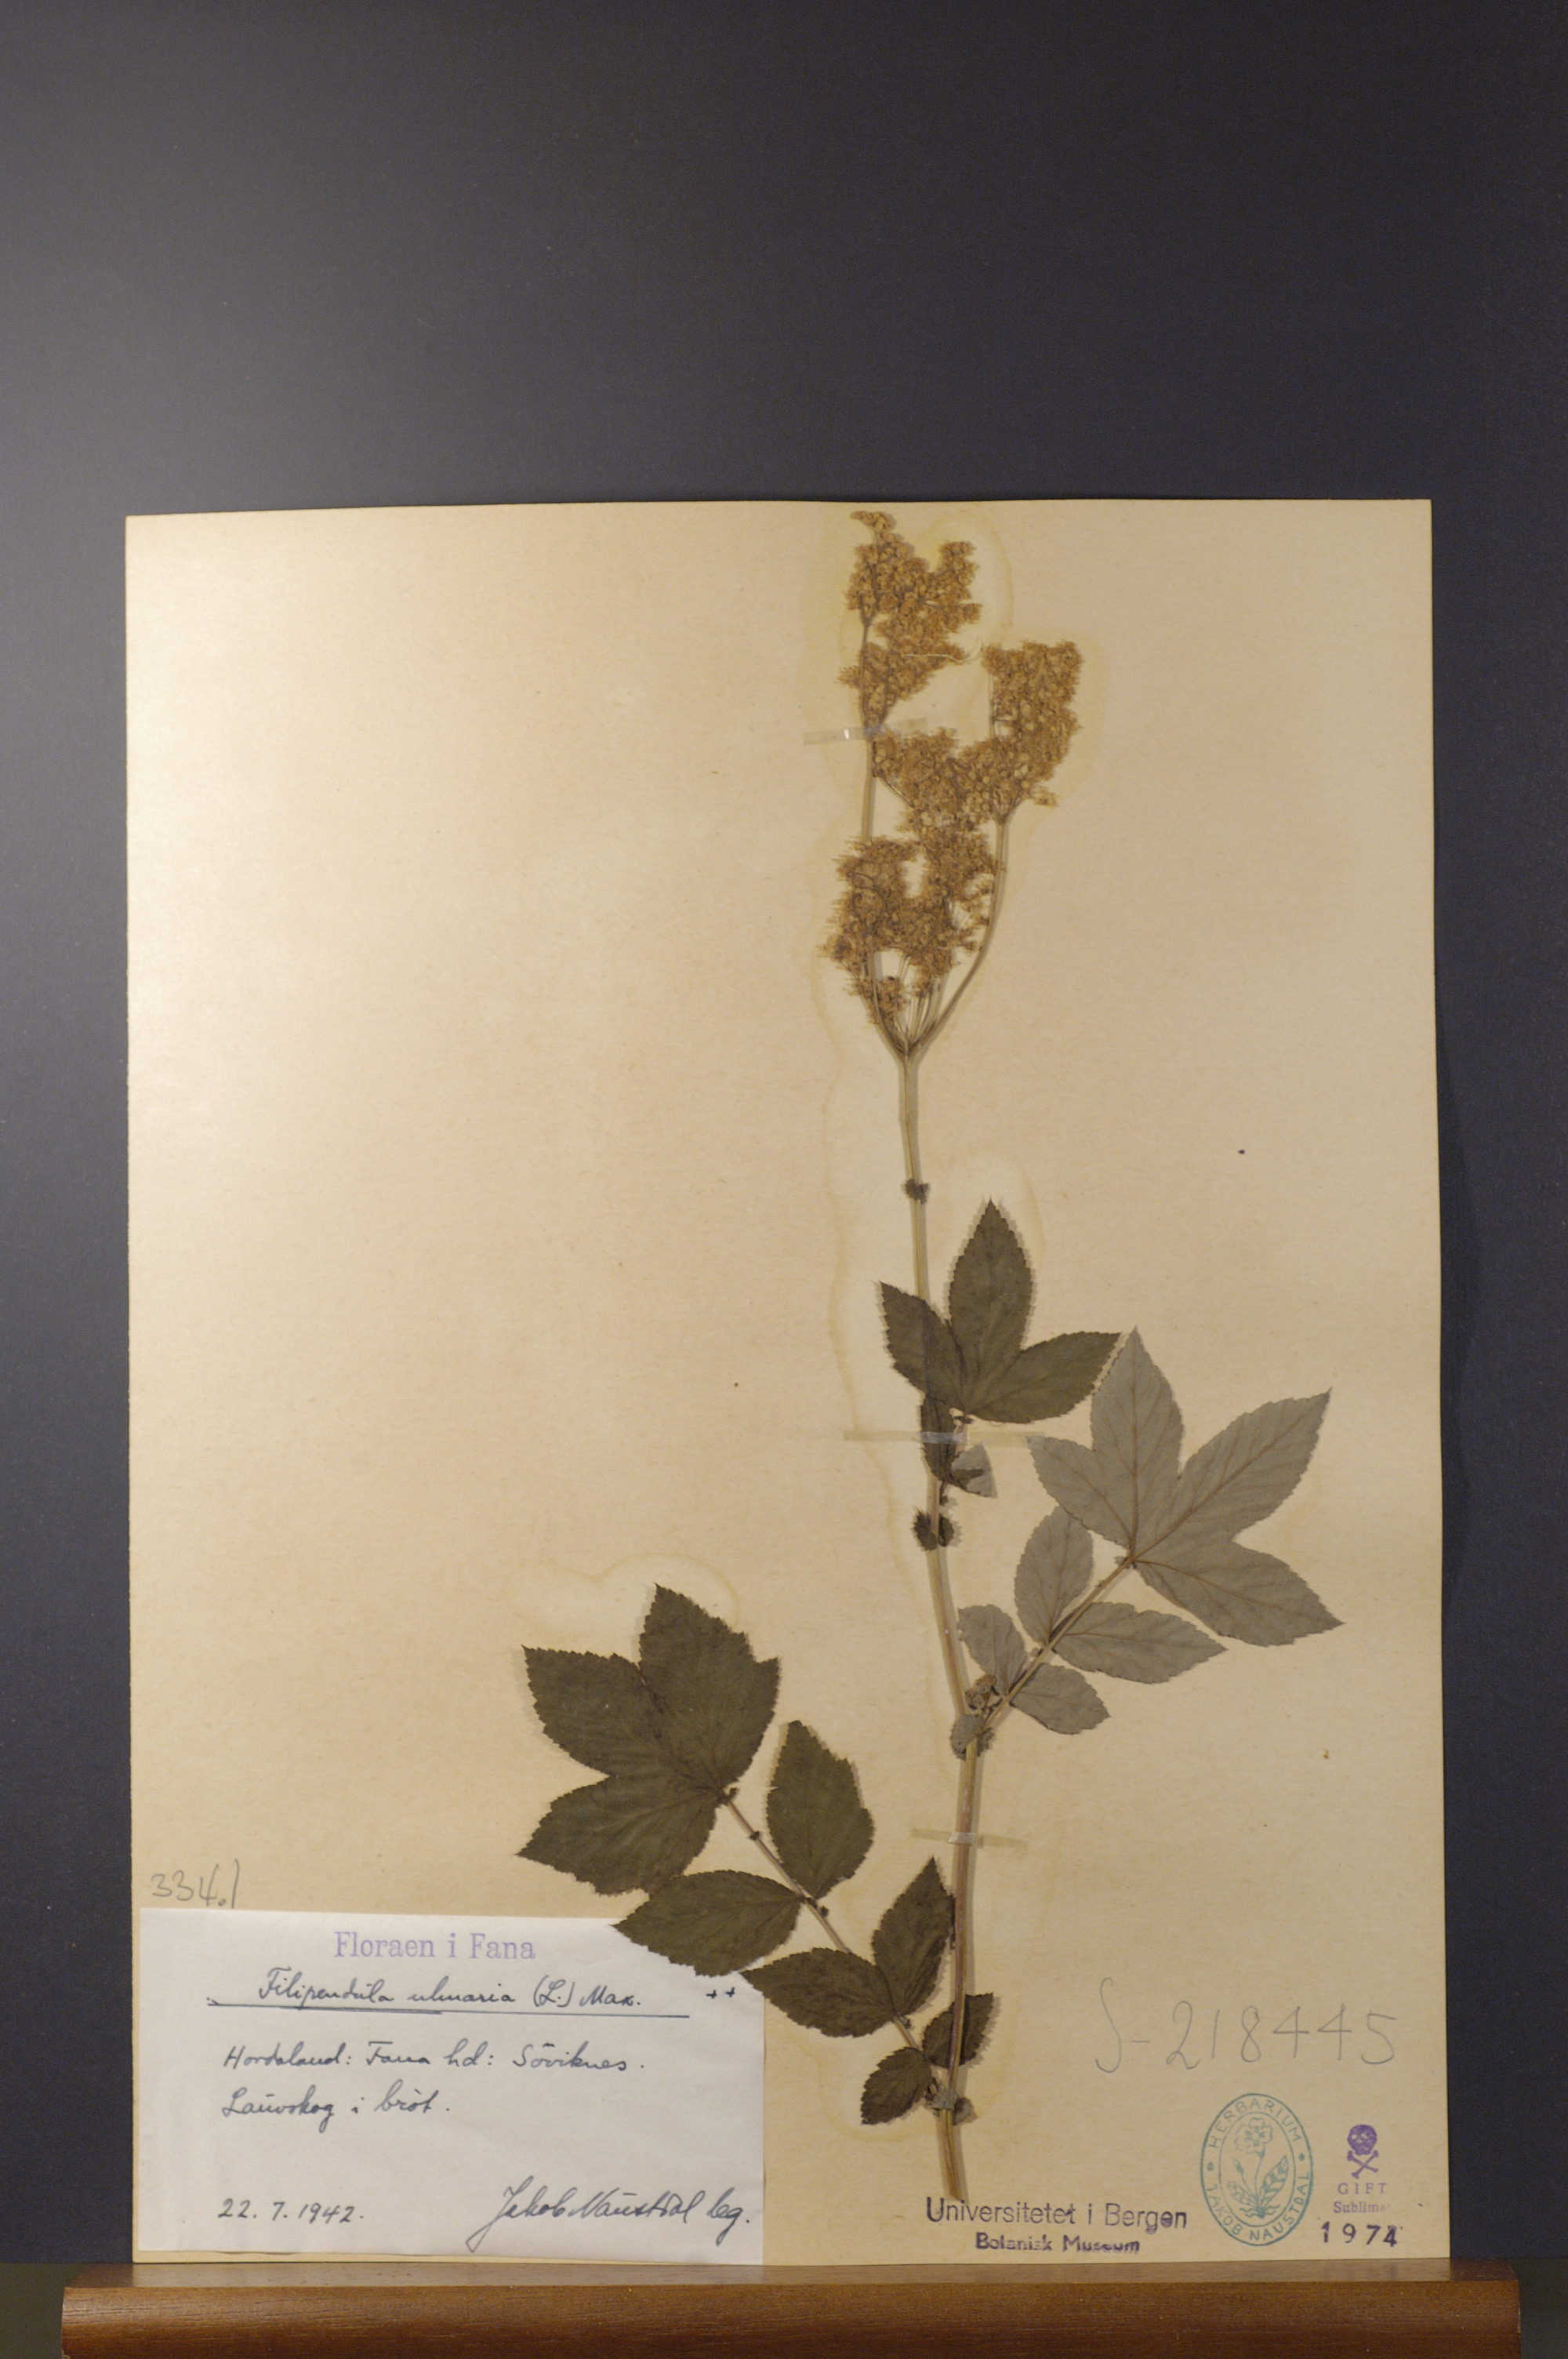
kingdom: Plantae
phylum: Tracheophyta
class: Magnoliopsida
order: Rosales
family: Rosaceae
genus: Filipendula
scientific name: Filipendula ulmaria
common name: Meadowsweet
